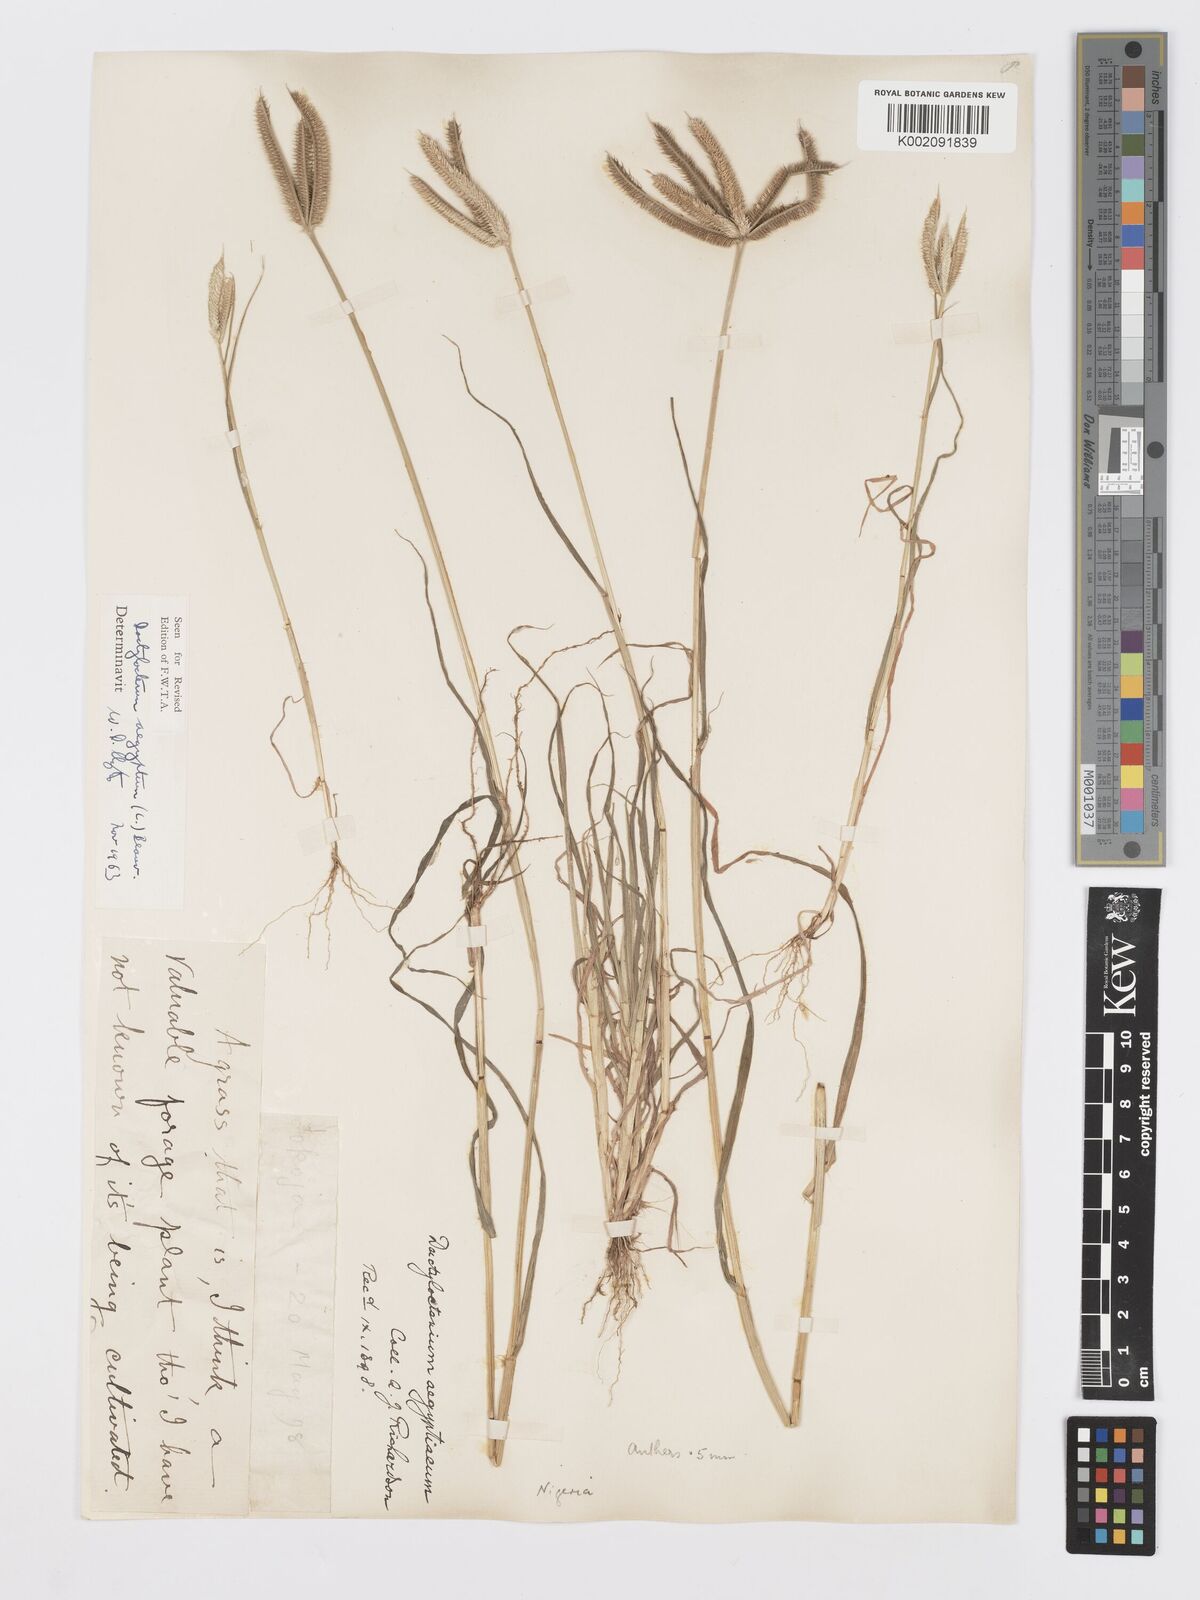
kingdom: Plantae
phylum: Tracheophyta
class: Liliopsida
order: Poales
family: Poaceae
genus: Dactyloctenium
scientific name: Dactyloctenium aegyptium
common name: Egyptian grass
